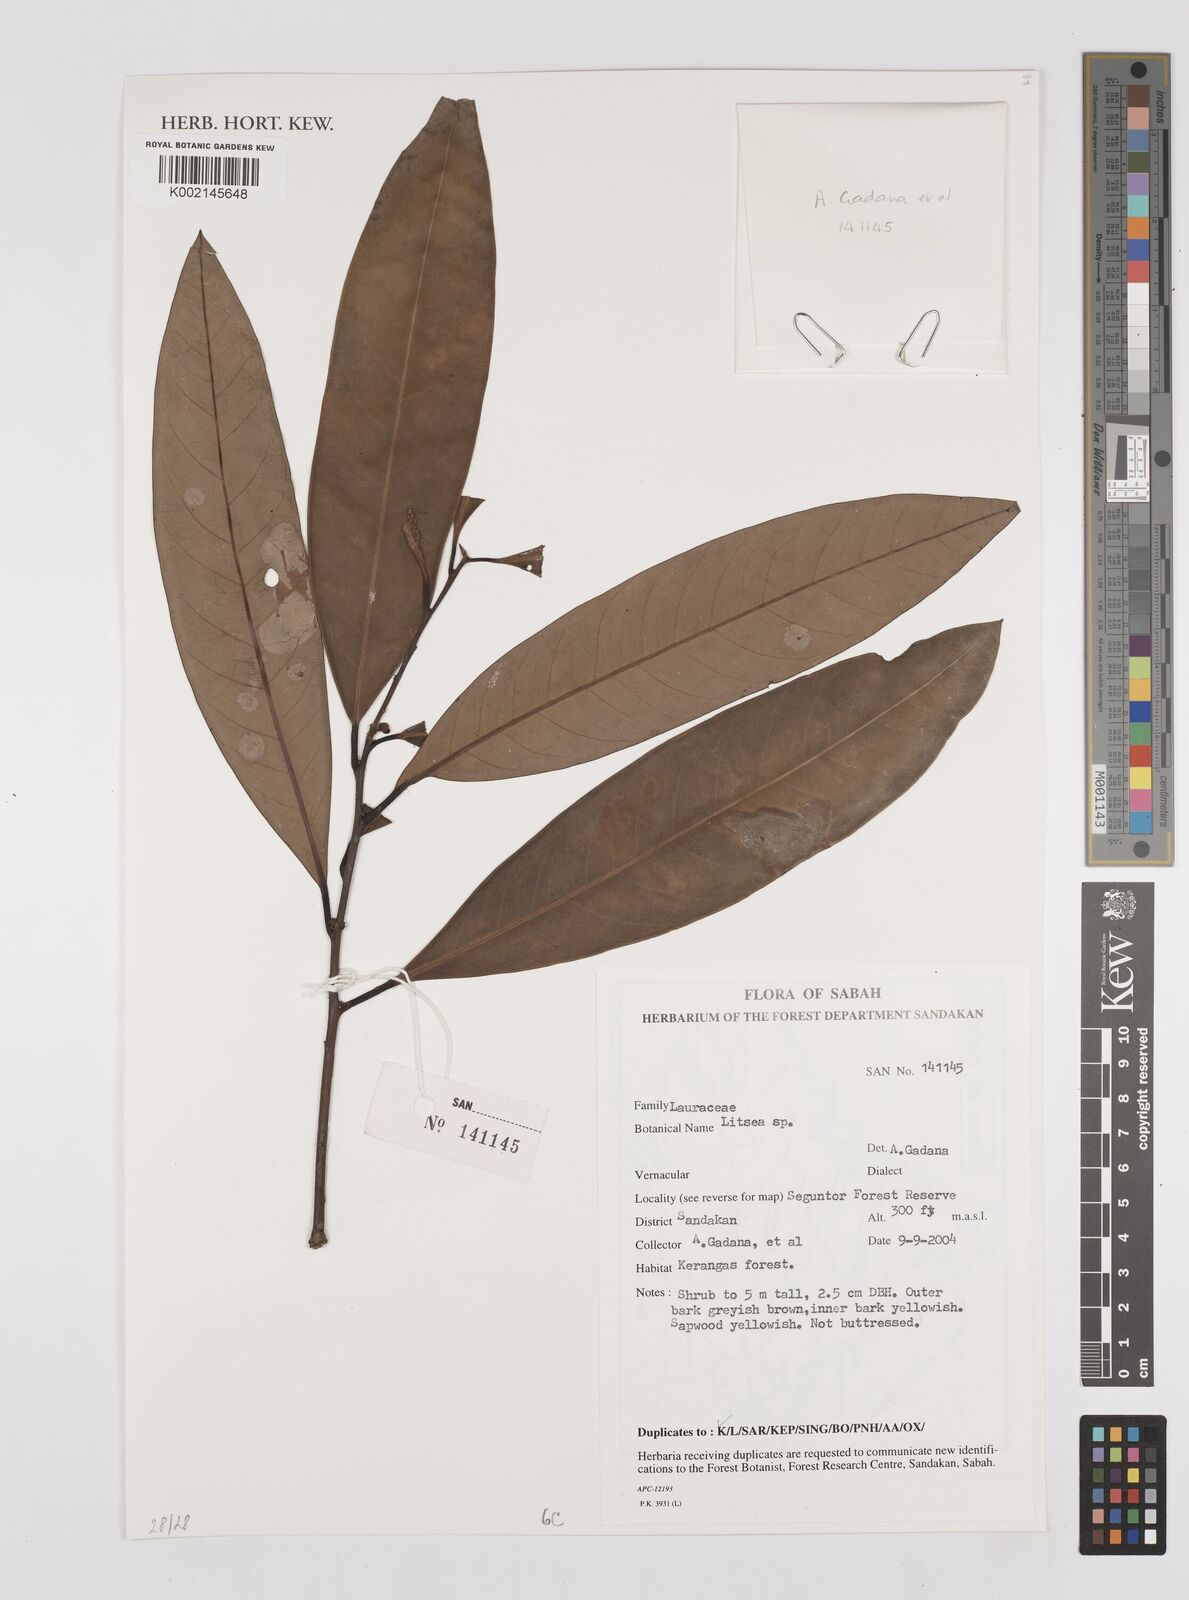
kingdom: Plantae
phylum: Tracheophyta
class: Magnoliopsida
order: Laurales
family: Lauraceae
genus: Litsea
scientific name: Litsea
